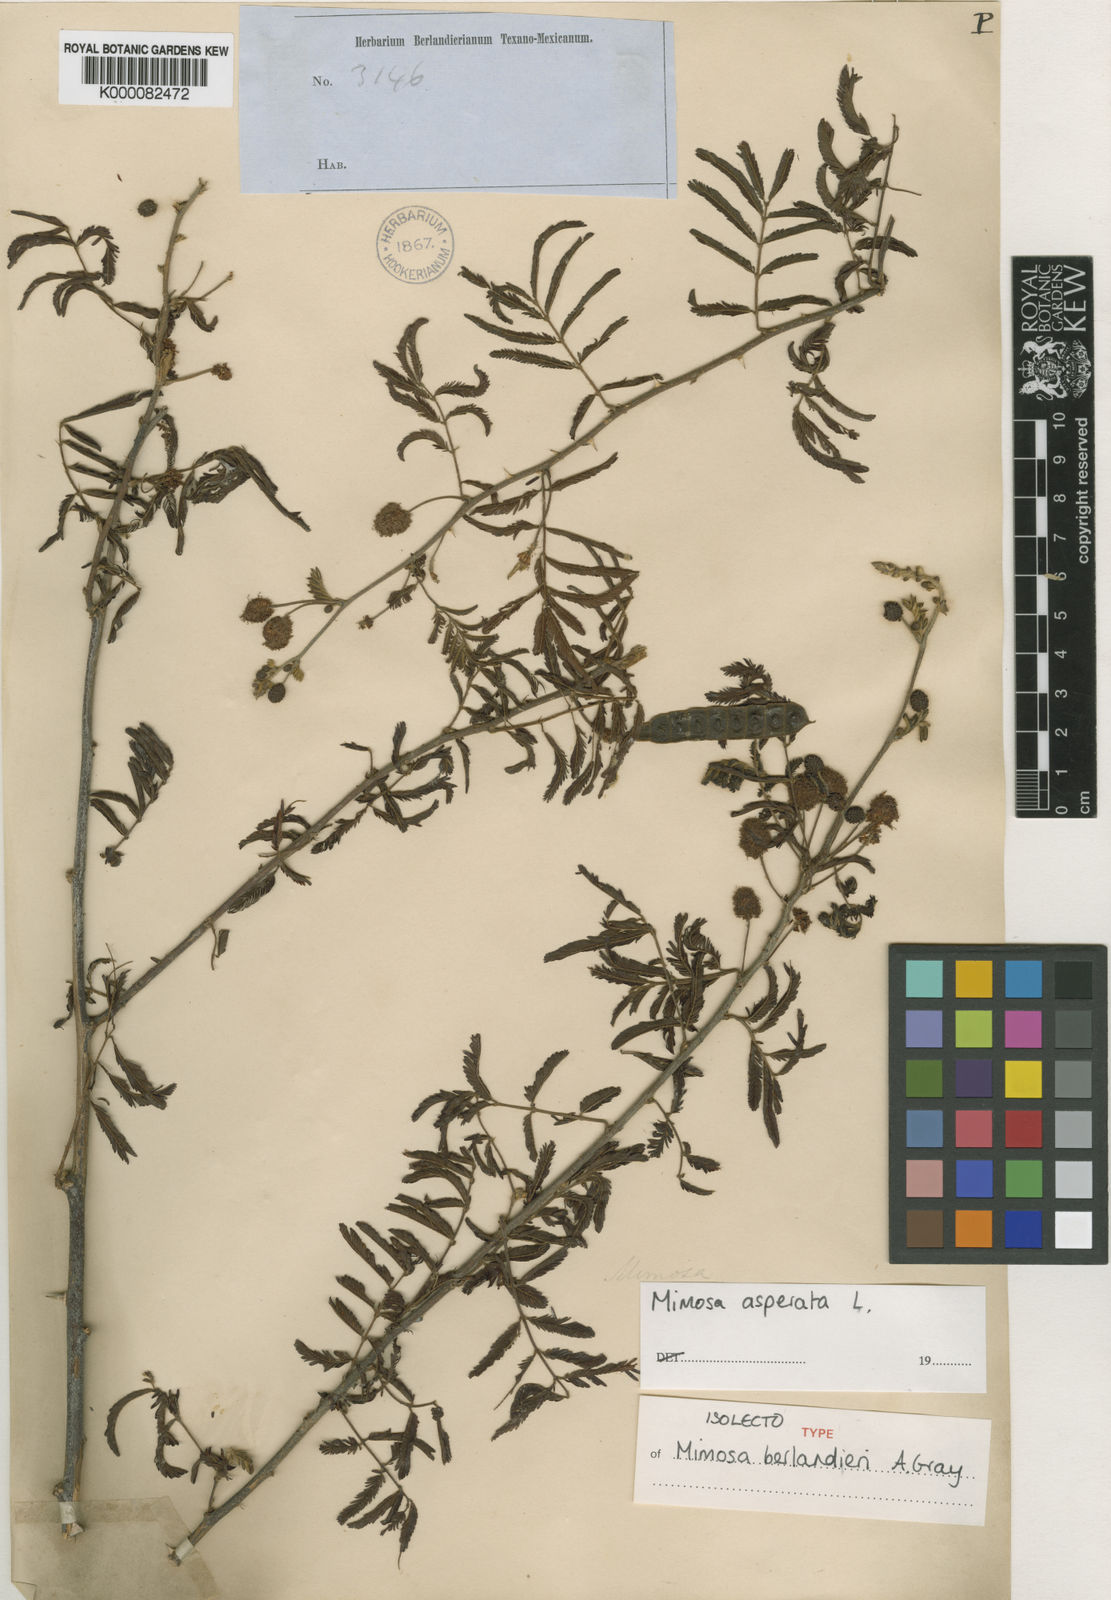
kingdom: Plantae
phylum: Tracheophyta
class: Magnoliopsida
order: Fabales
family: Fabaceae
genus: Mimosa
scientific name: Mimosa pigra
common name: Black mimosa
